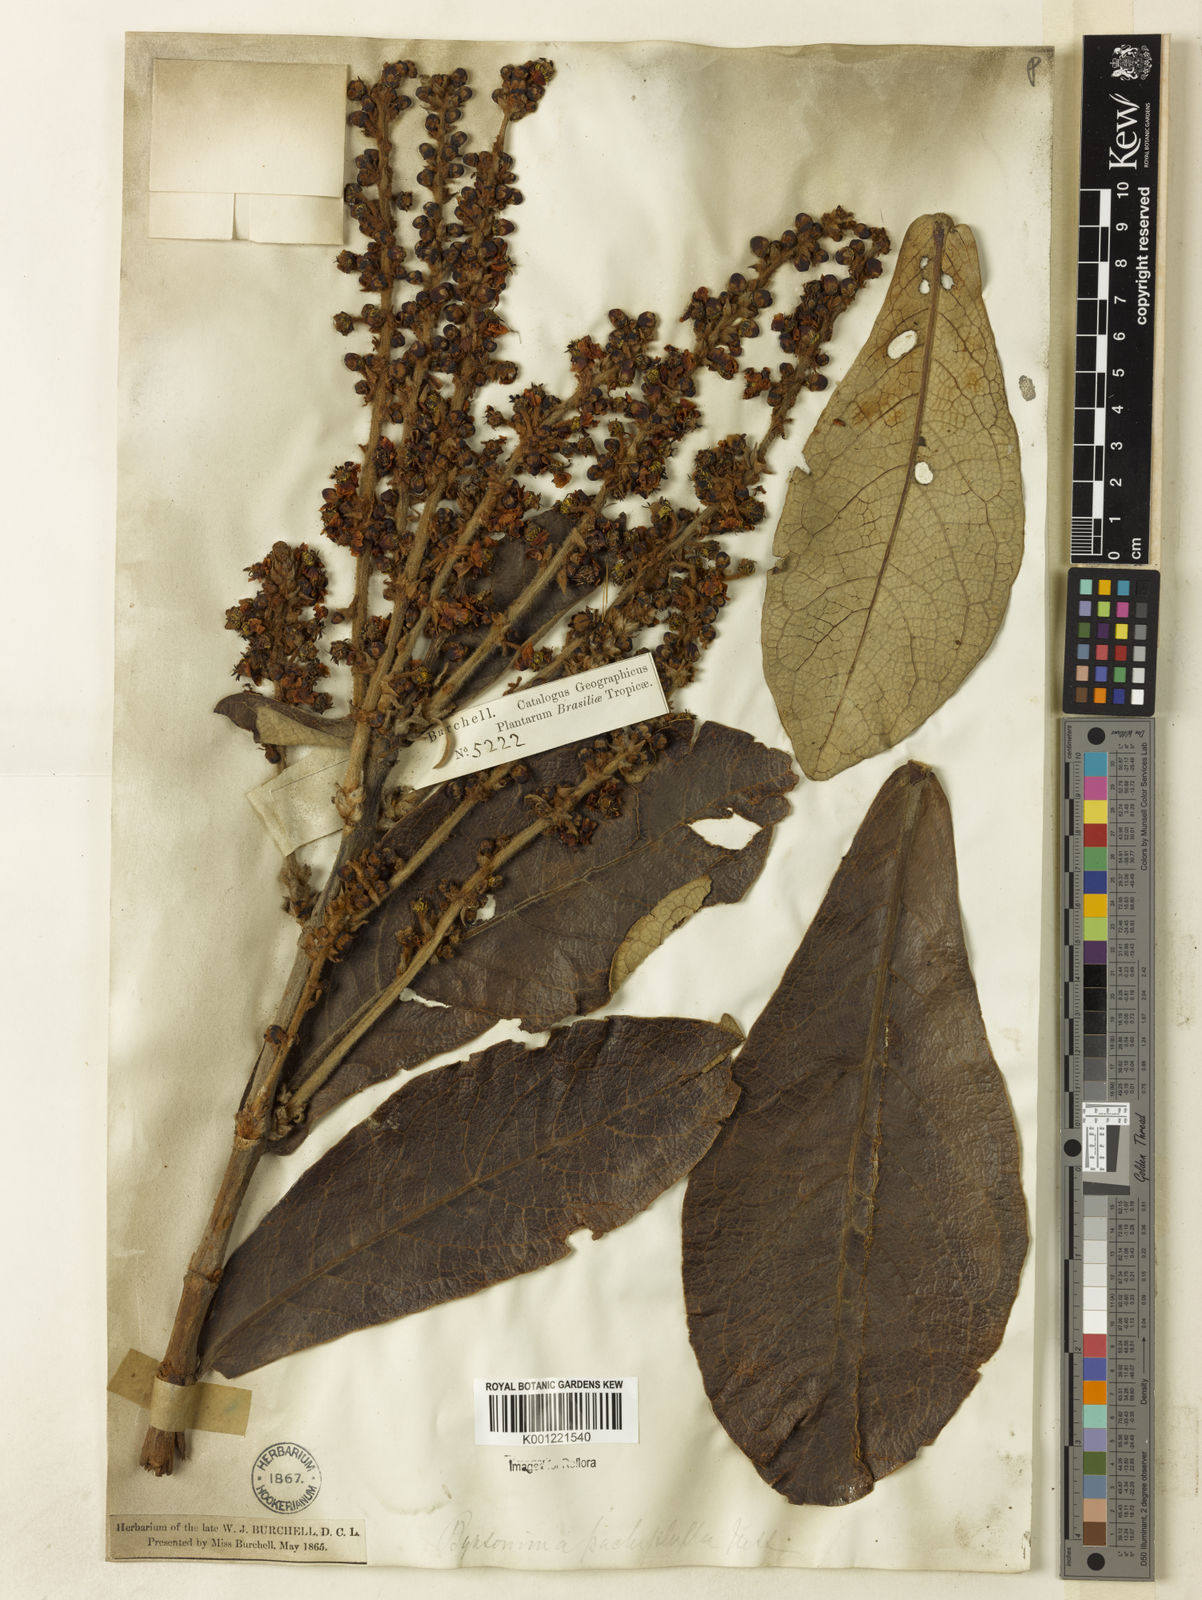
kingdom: Plantae
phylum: Tracheophyta
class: Magnoliopsida
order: Malpighiales
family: Malpighiaceae
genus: Byrsonima
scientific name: Byrsonima pachyphylla
